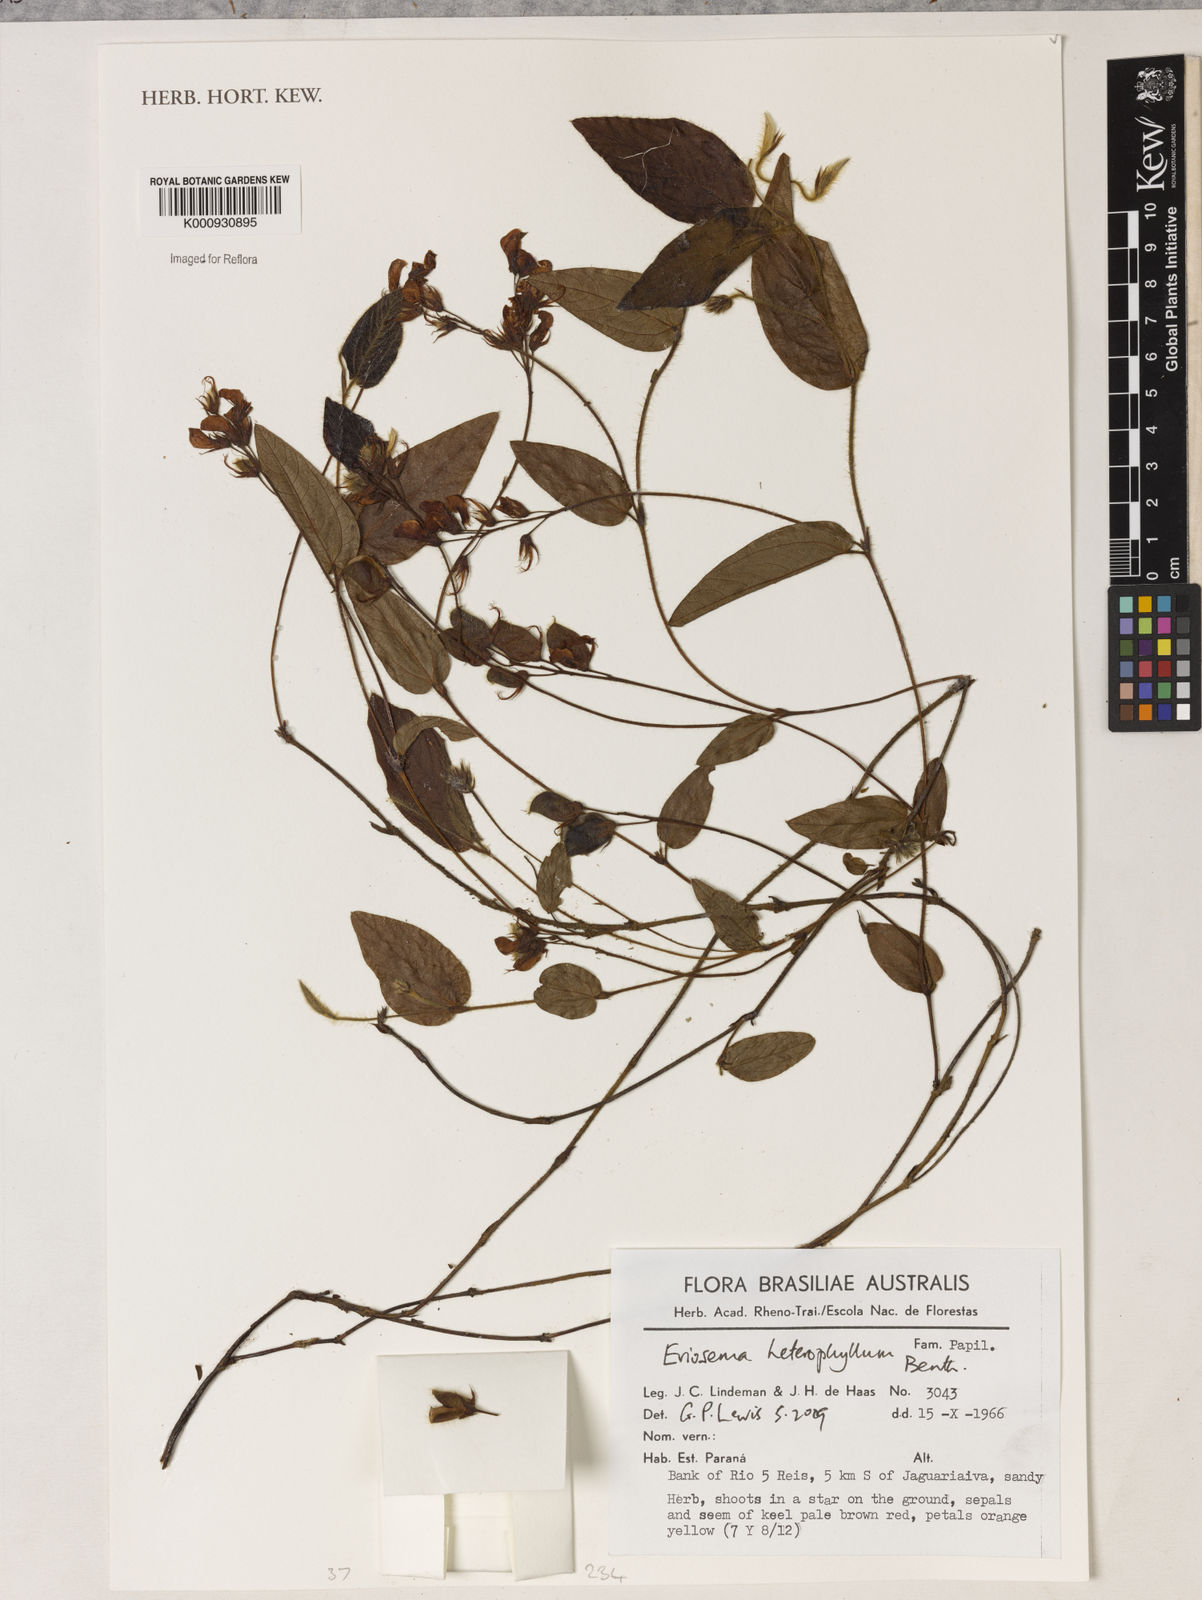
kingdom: Plantae
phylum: Tracheophyta
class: Magnoliopsida
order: Fabales
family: Fabaceae
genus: Eriosema
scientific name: Eriosema heterophyllum
